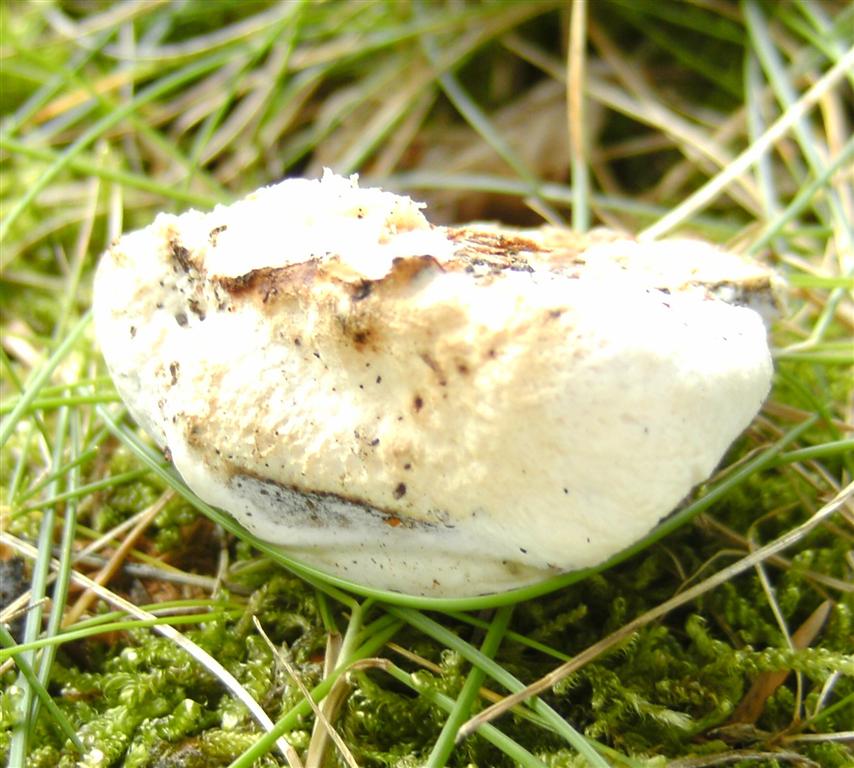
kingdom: Fungi
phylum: Basidiomycota
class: Agaricomycetes
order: Polyporales
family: Incrustoporiaceae
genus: Skeletocutis
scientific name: Skeletocutis nemoralis
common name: stor krystalporesvamp
